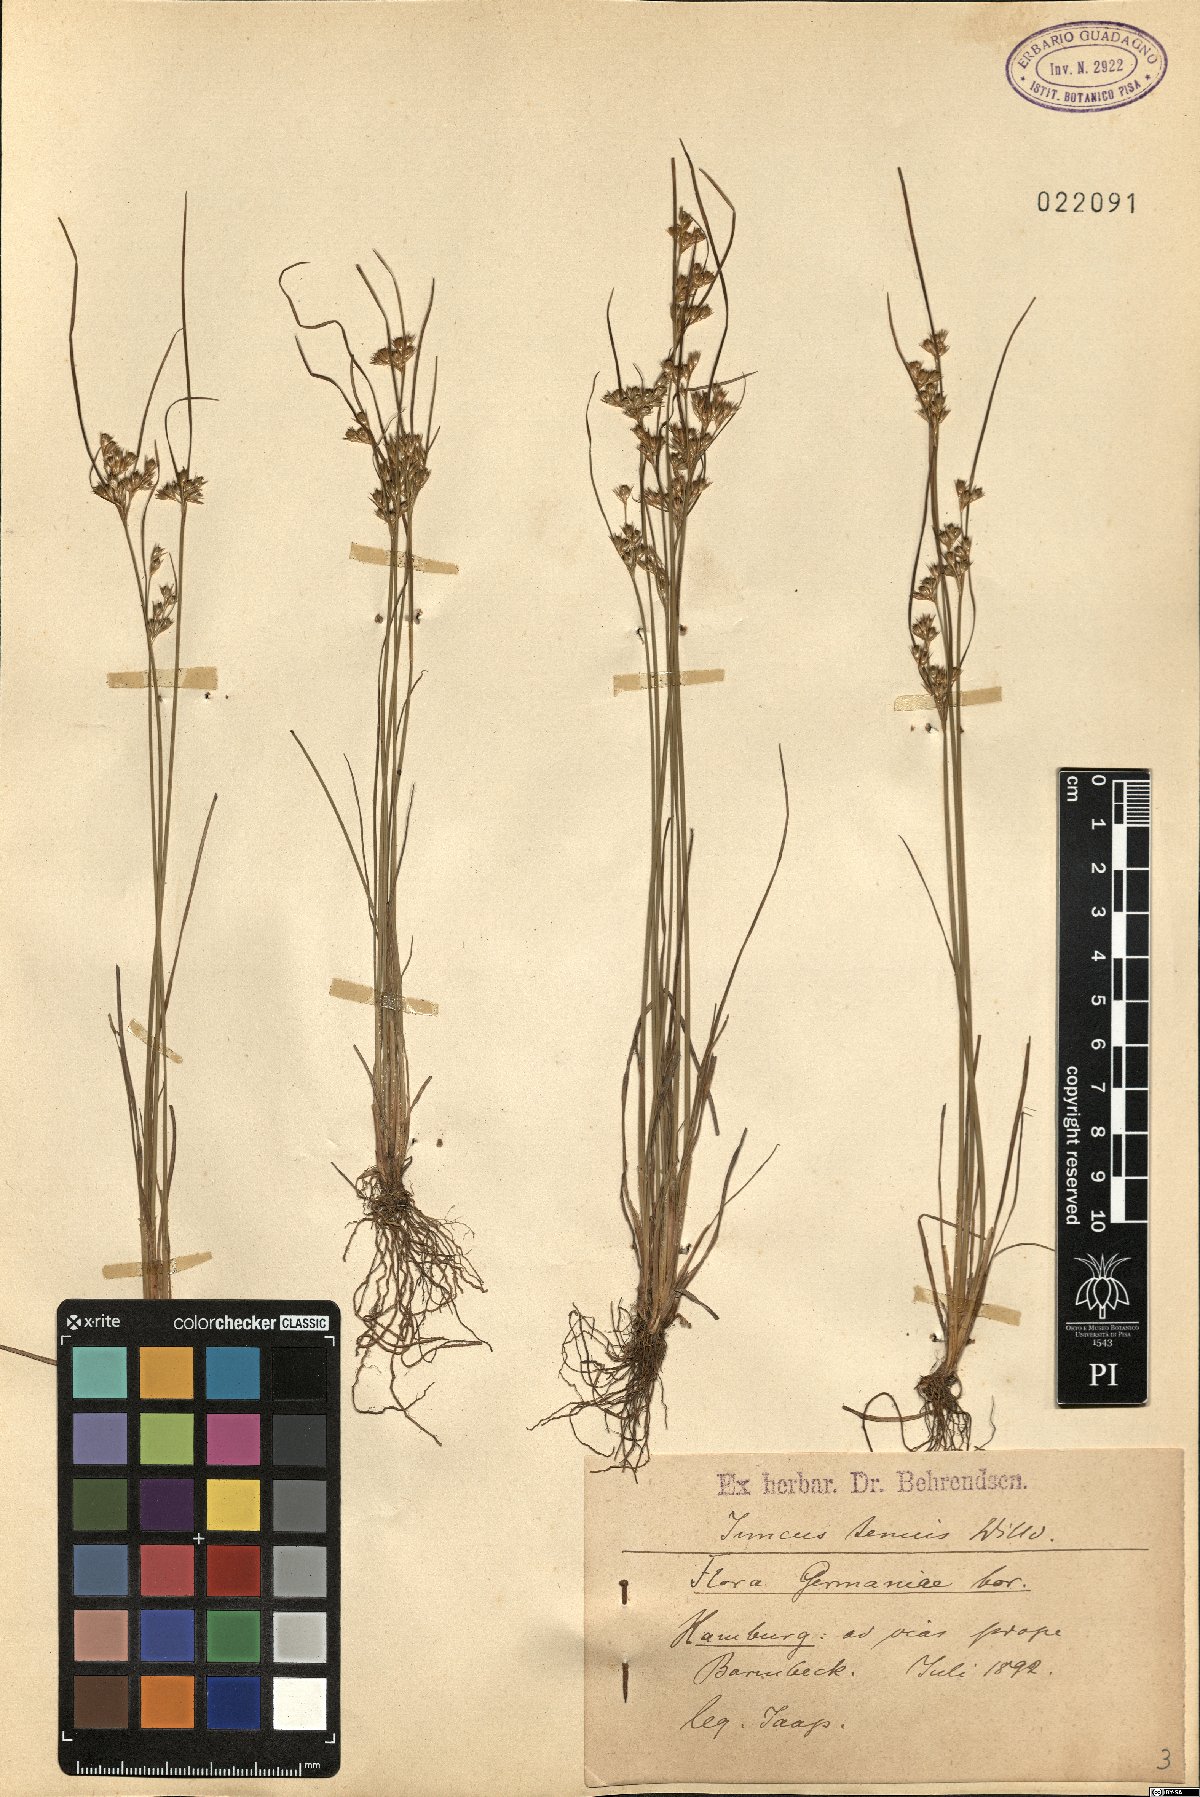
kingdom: Plantae
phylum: Tracheophyta
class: Liliopsida
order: Poales
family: Juncaceae
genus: Juncus
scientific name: Juncus tenuis
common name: Slender rush
